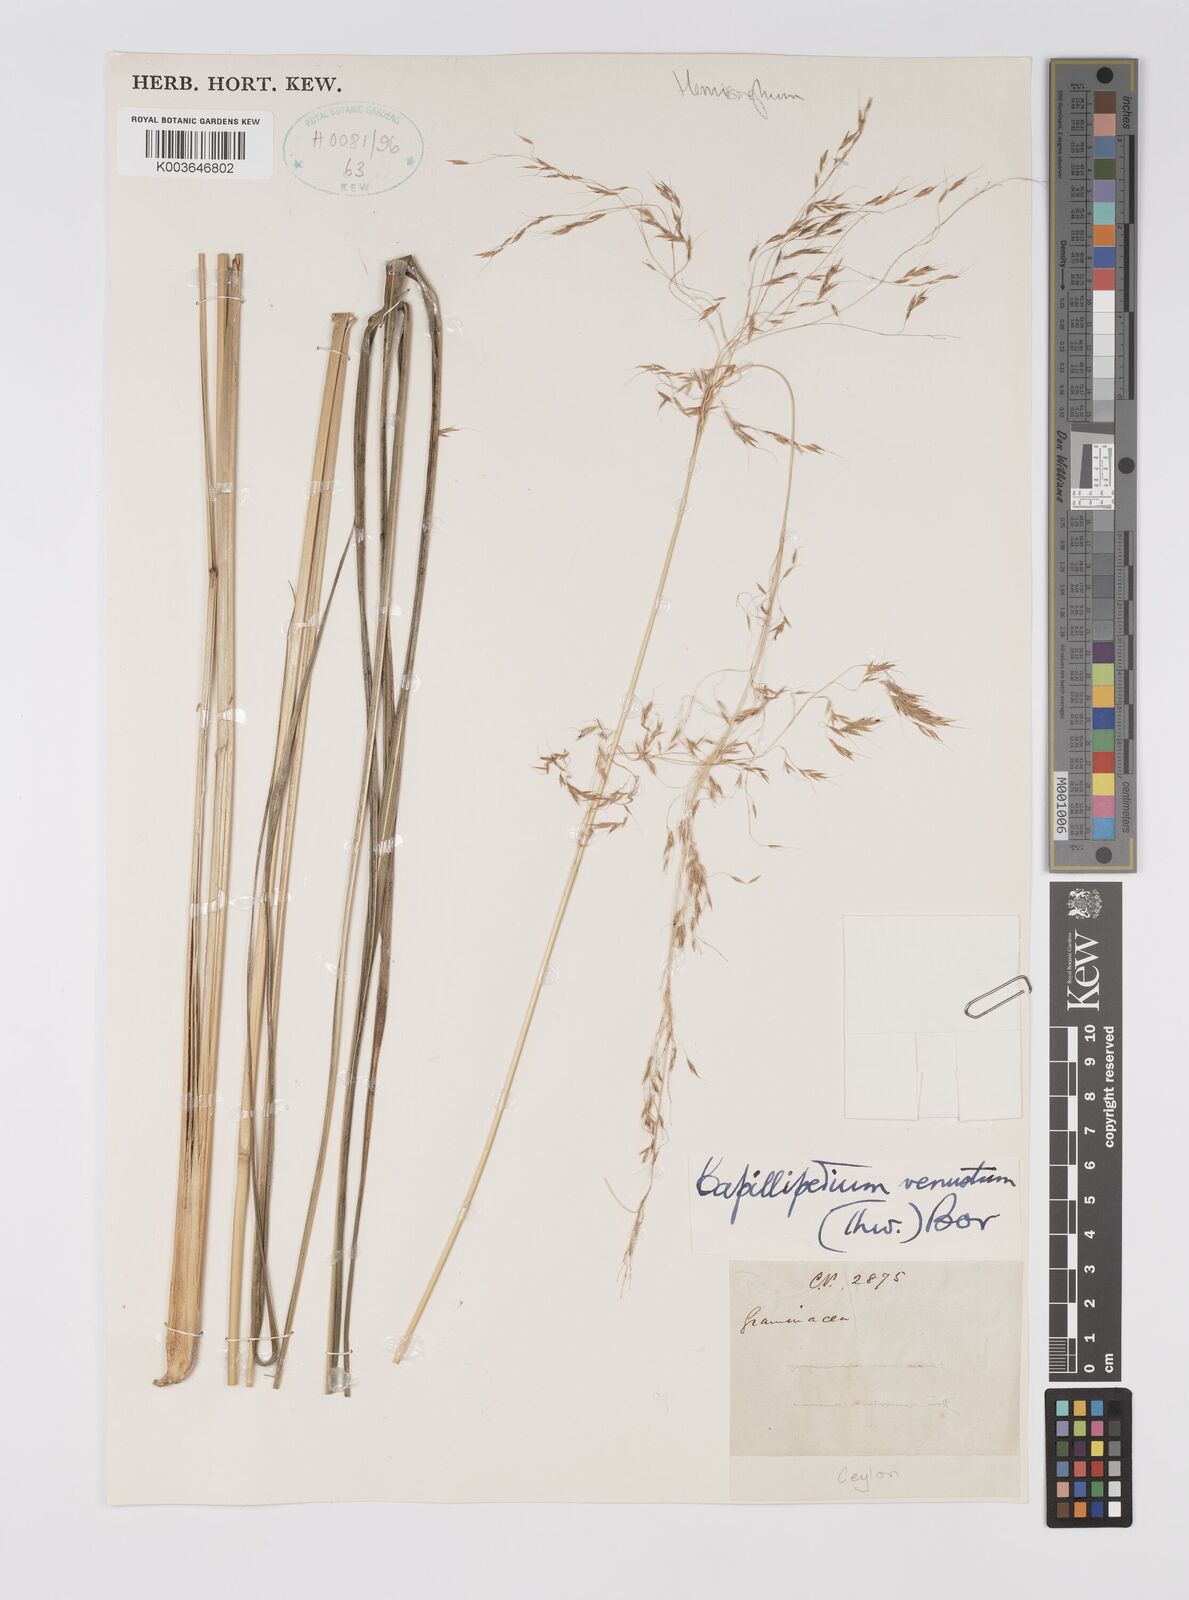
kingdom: Plantae
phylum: Tracheophyta
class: Liliopsida
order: Poales
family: Poaceae
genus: Hemisorghum
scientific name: Hemisorghum venustum
